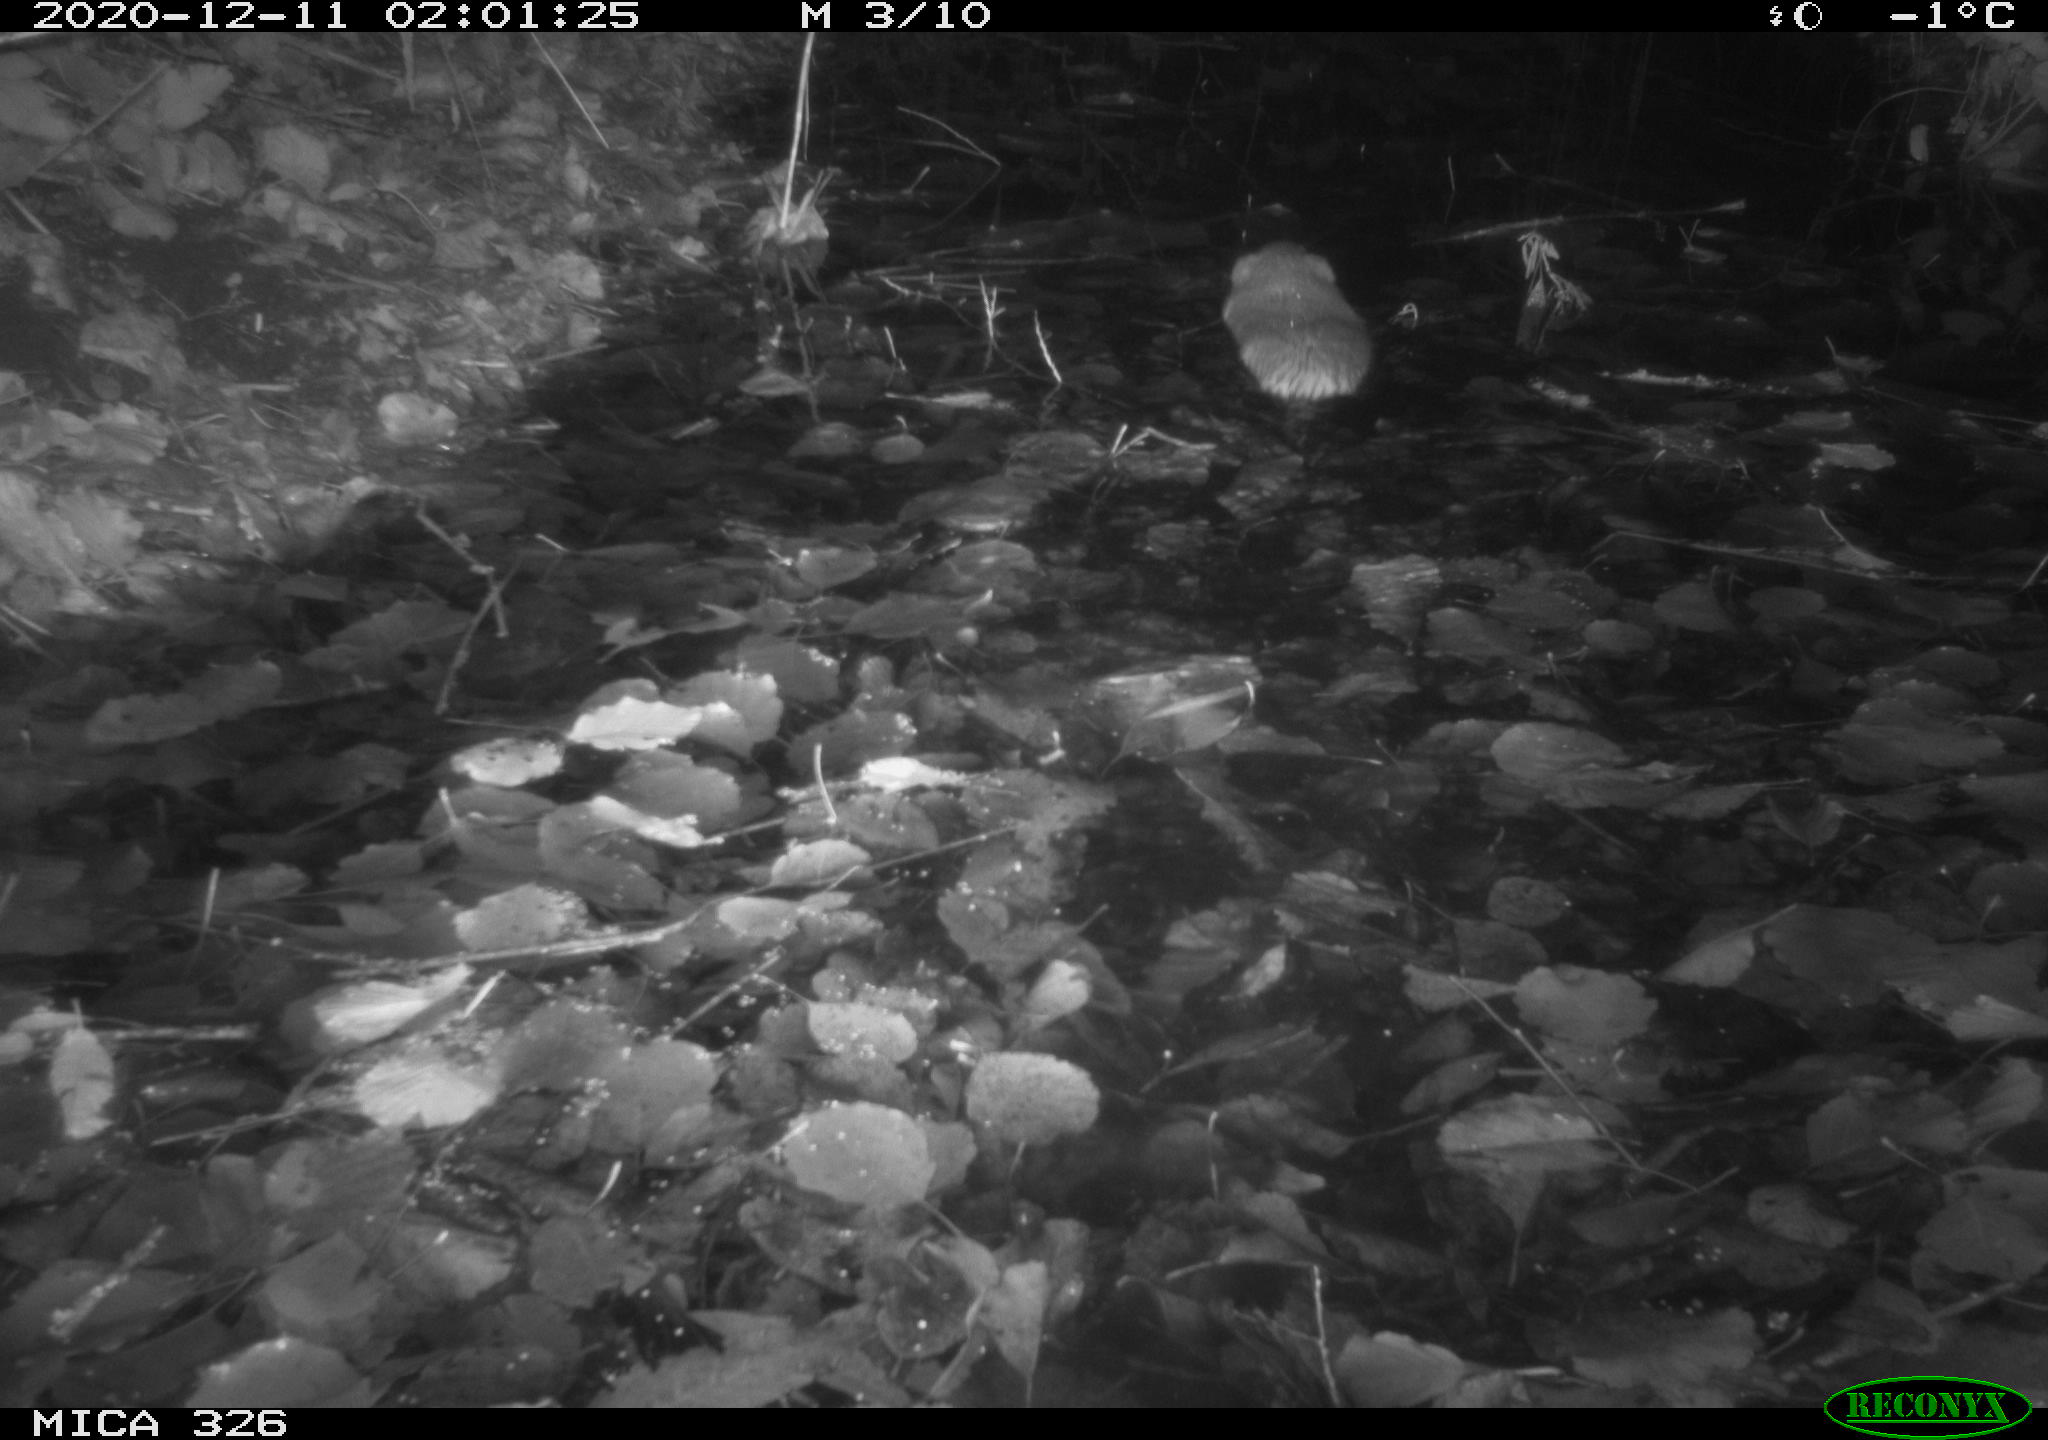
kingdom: Animalia
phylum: Chordata
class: Mammalia
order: Rodentia
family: Cricetidae
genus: Ondatra
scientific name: Ondatra zibethicus
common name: Muskrat
